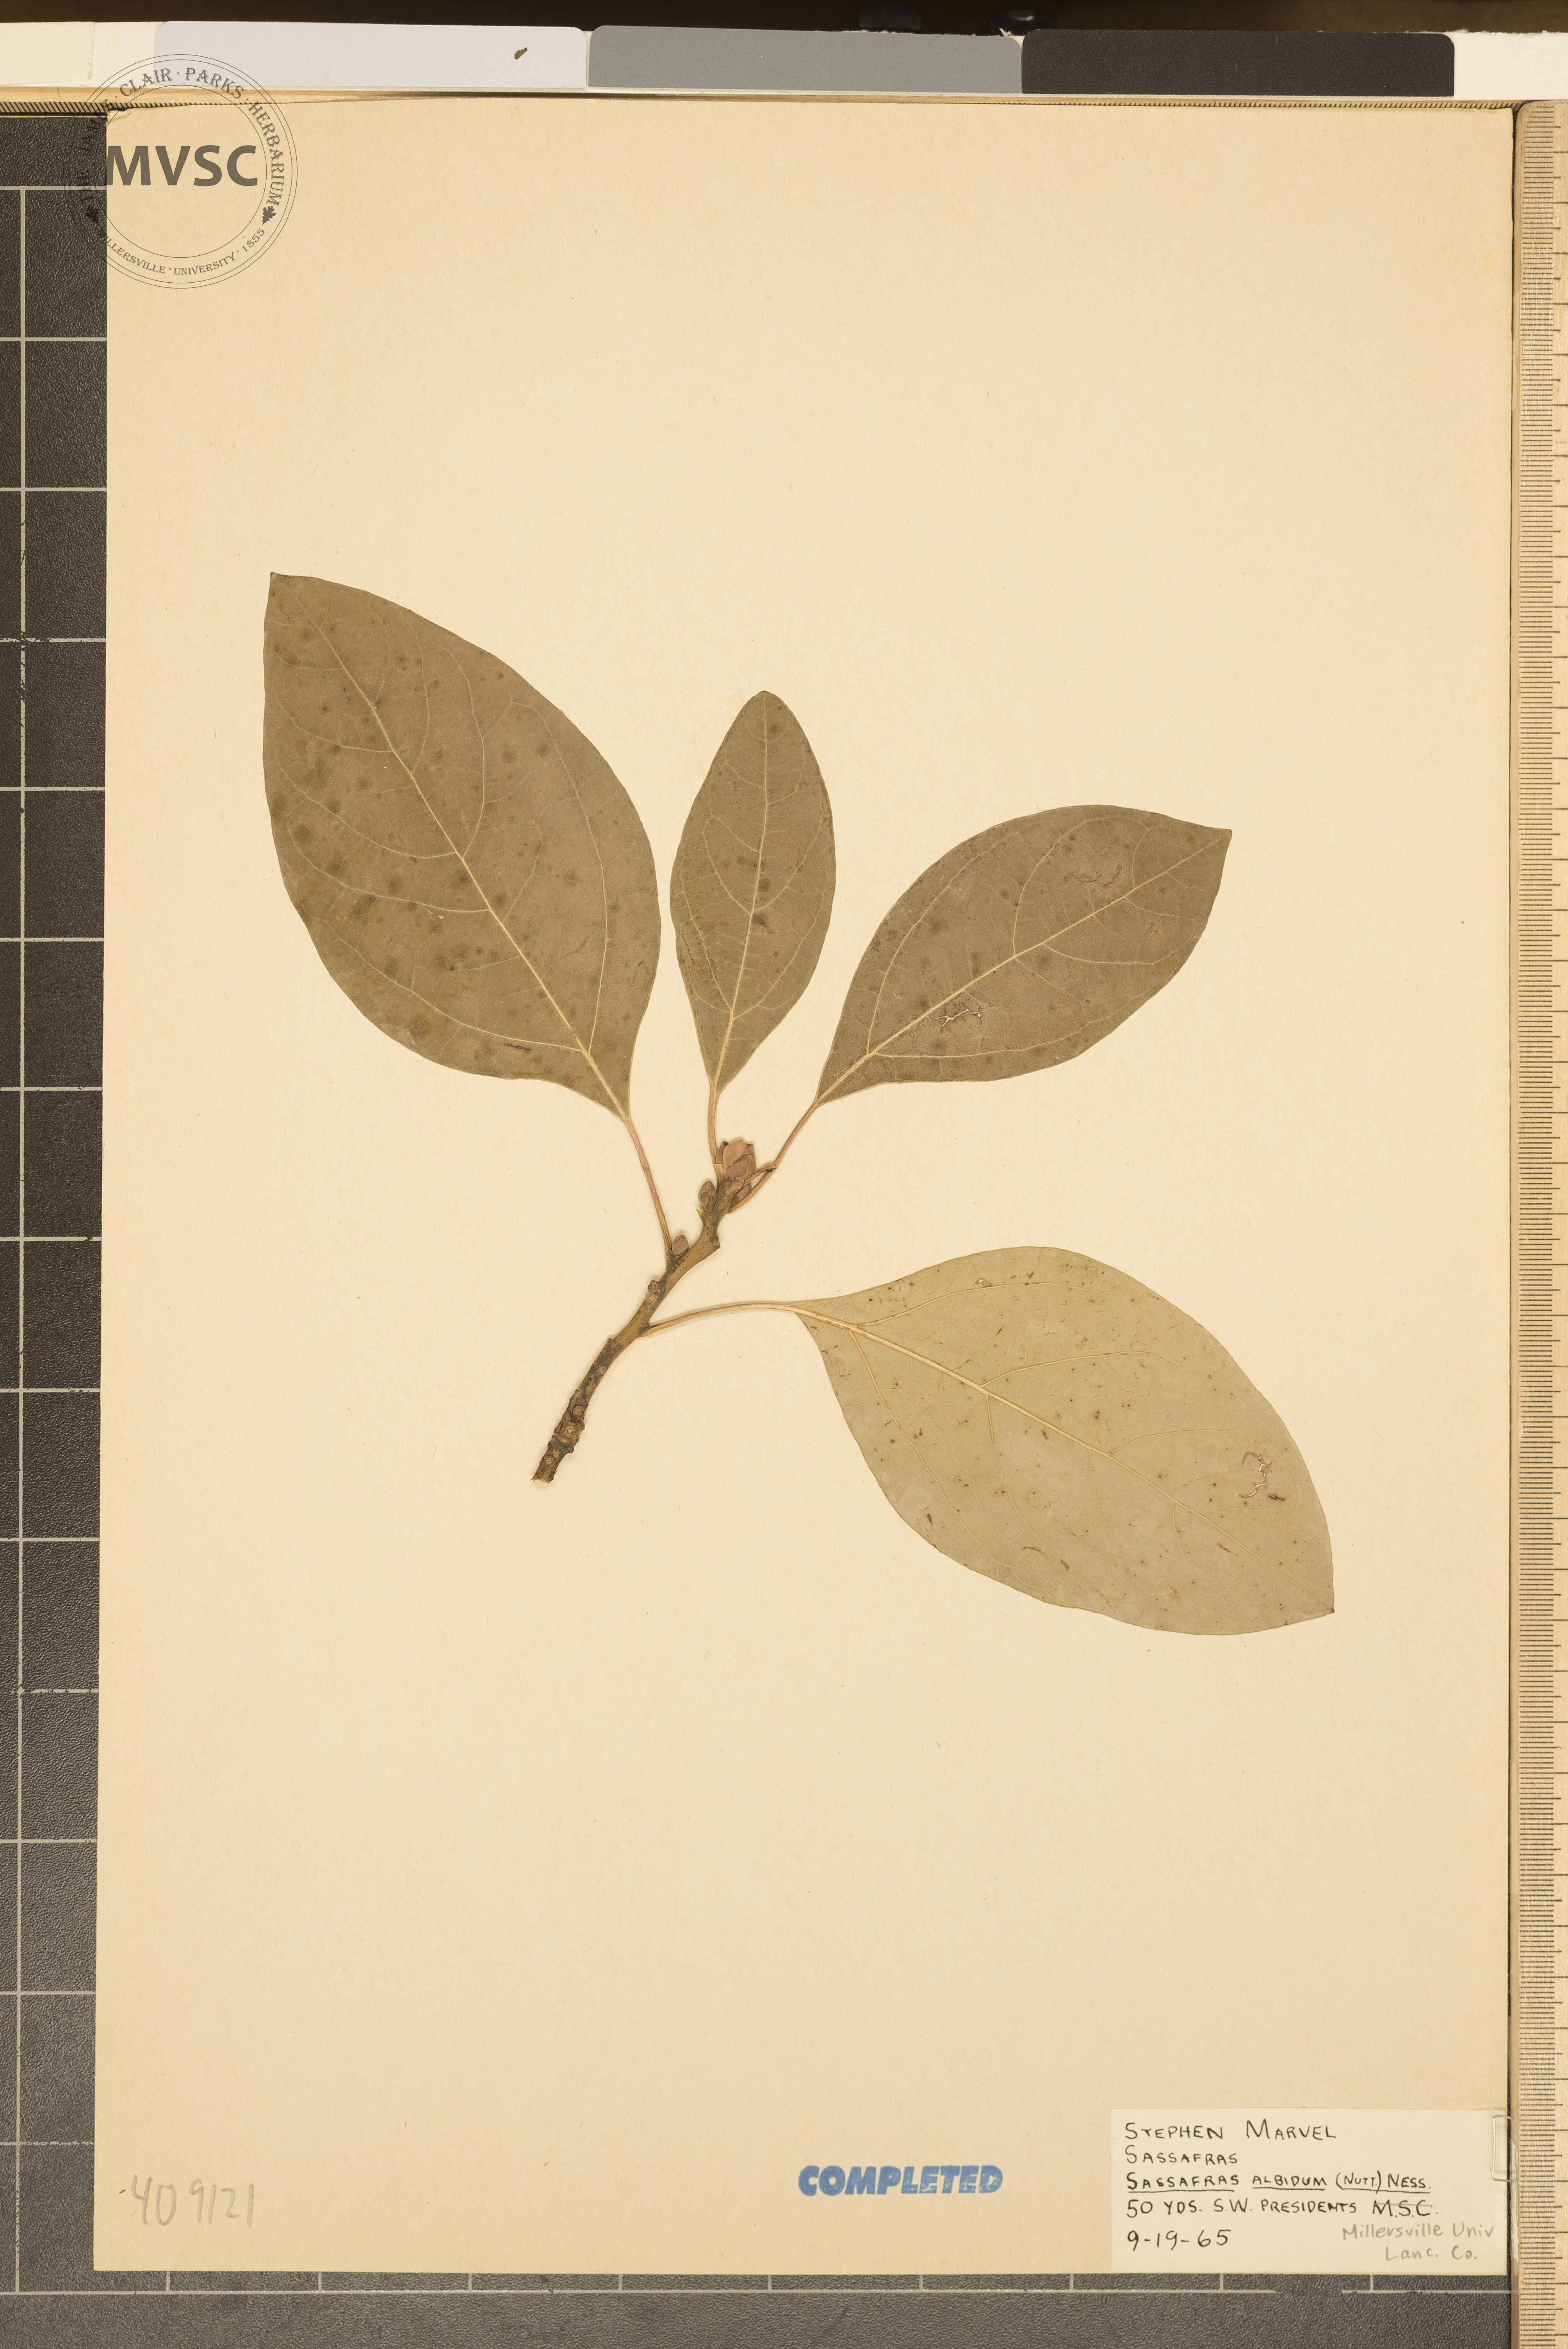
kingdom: Plantae
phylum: Tracheophyta
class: Magnoliopsida
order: Laurales
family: Lauraceae
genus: Sassafras
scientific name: Sassafras albidum
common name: Sassafras
